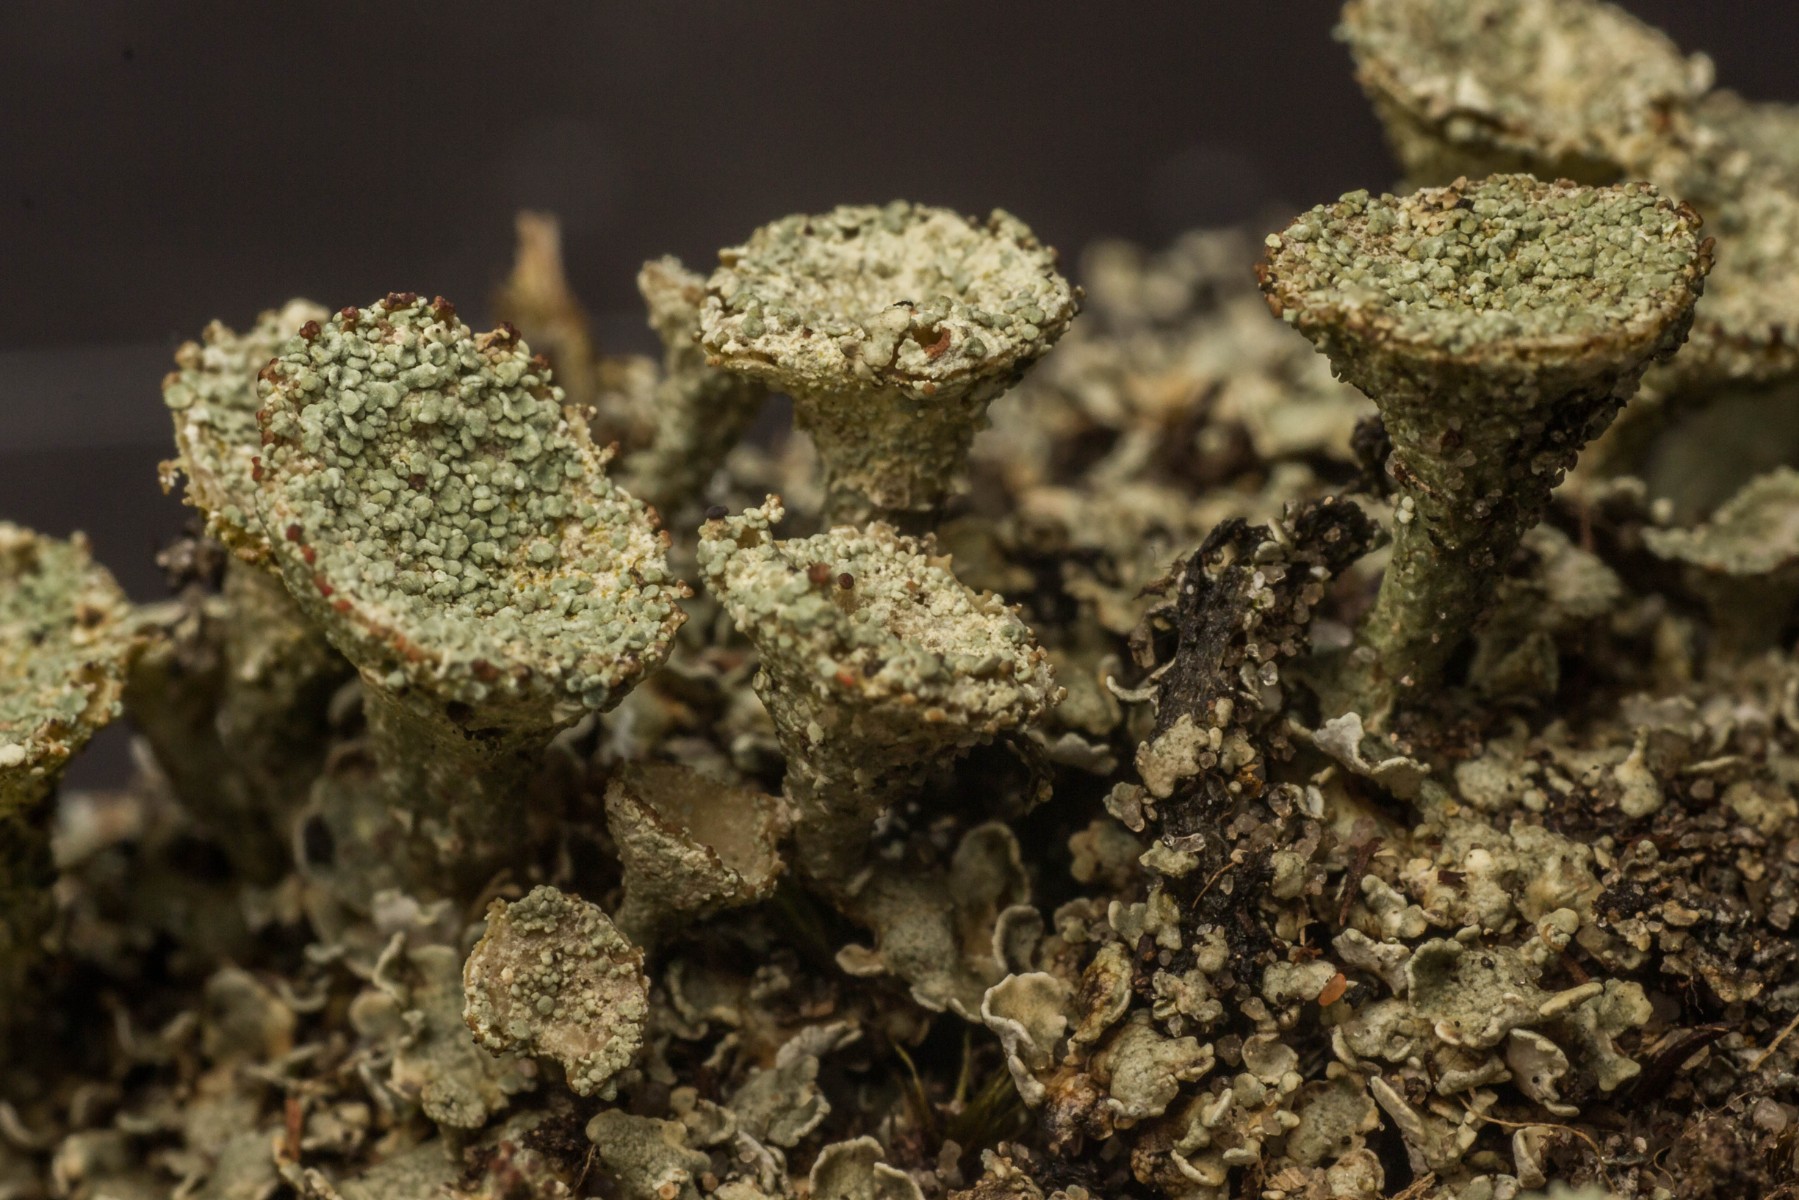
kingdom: Fungi
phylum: Ascomycota
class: Lecanoromycetes
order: Lecanorales
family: Cladoniaceae
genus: Cladonia
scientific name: Cladonia borealis
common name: nordlig bægerlav
